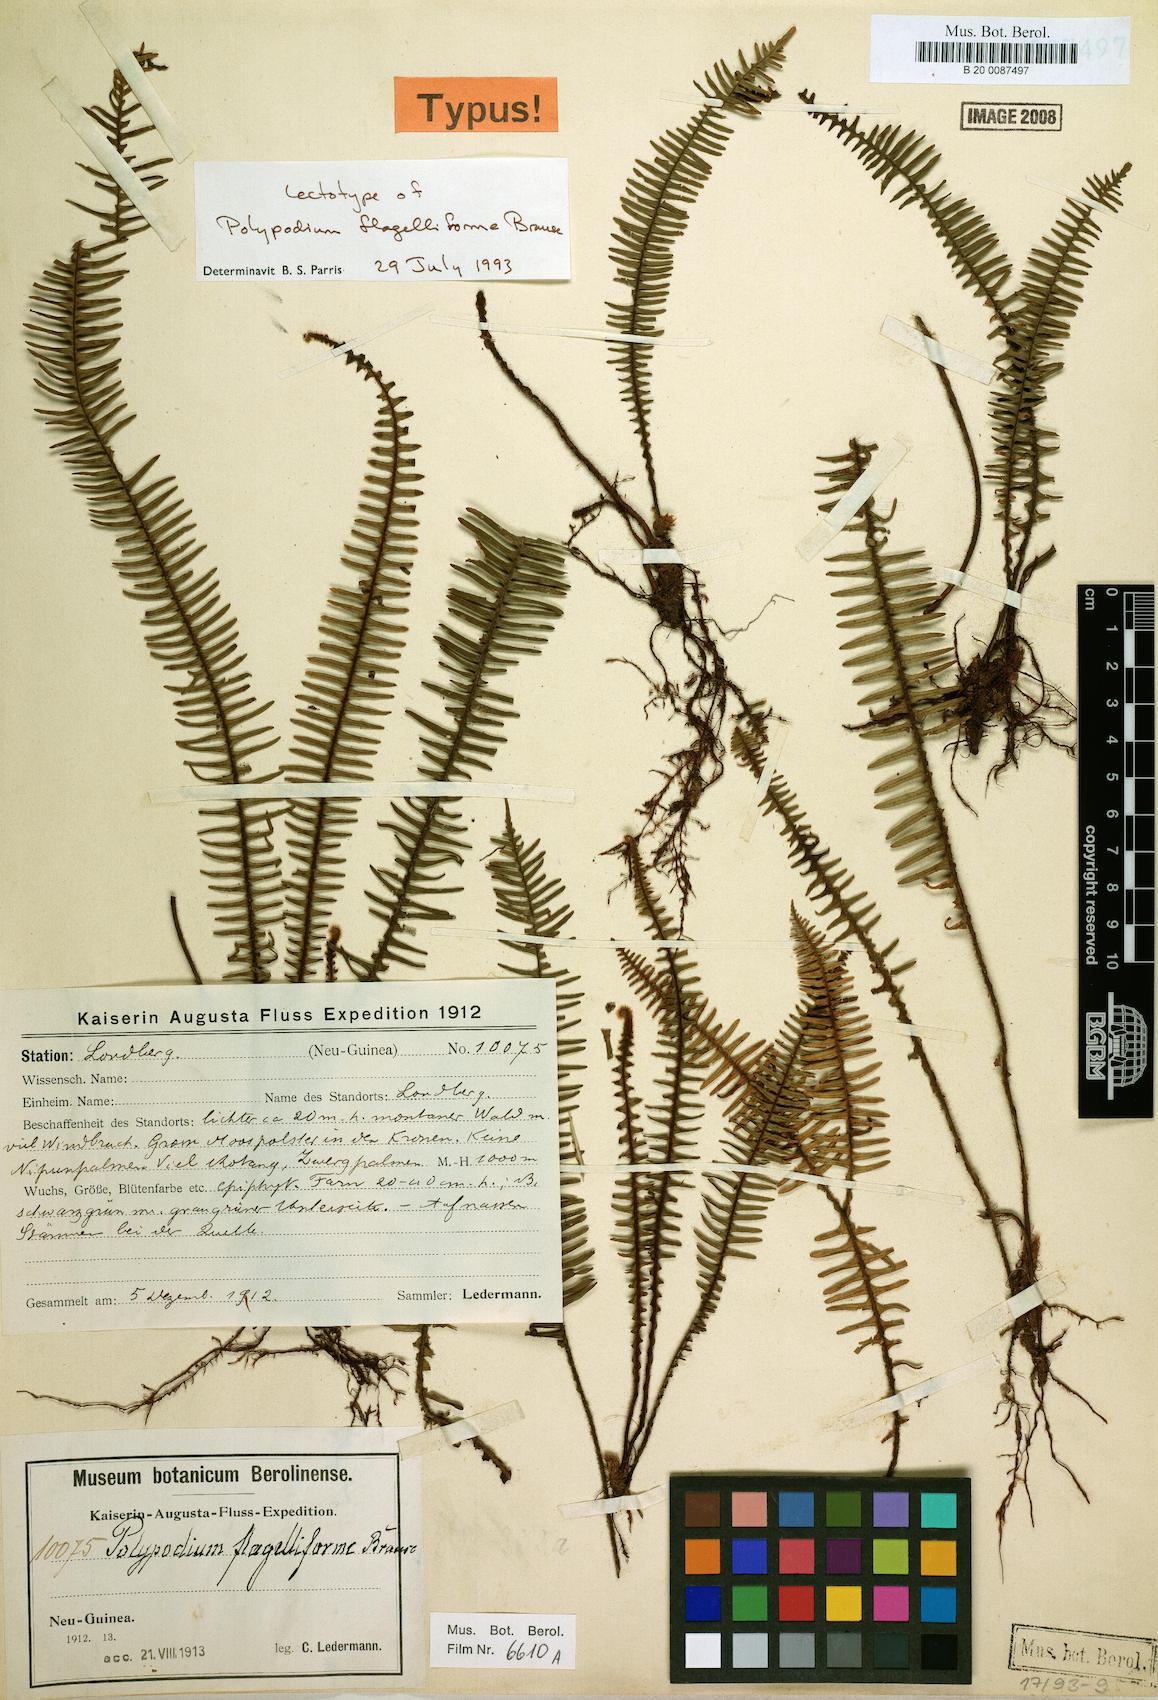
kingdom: Plantae
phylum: Tracheophyta
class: Polypodiopsida
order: Polypodiales
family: Polypodiaceae
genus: Oreogrammitis
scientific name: Oreogrammitis ctenoidea
